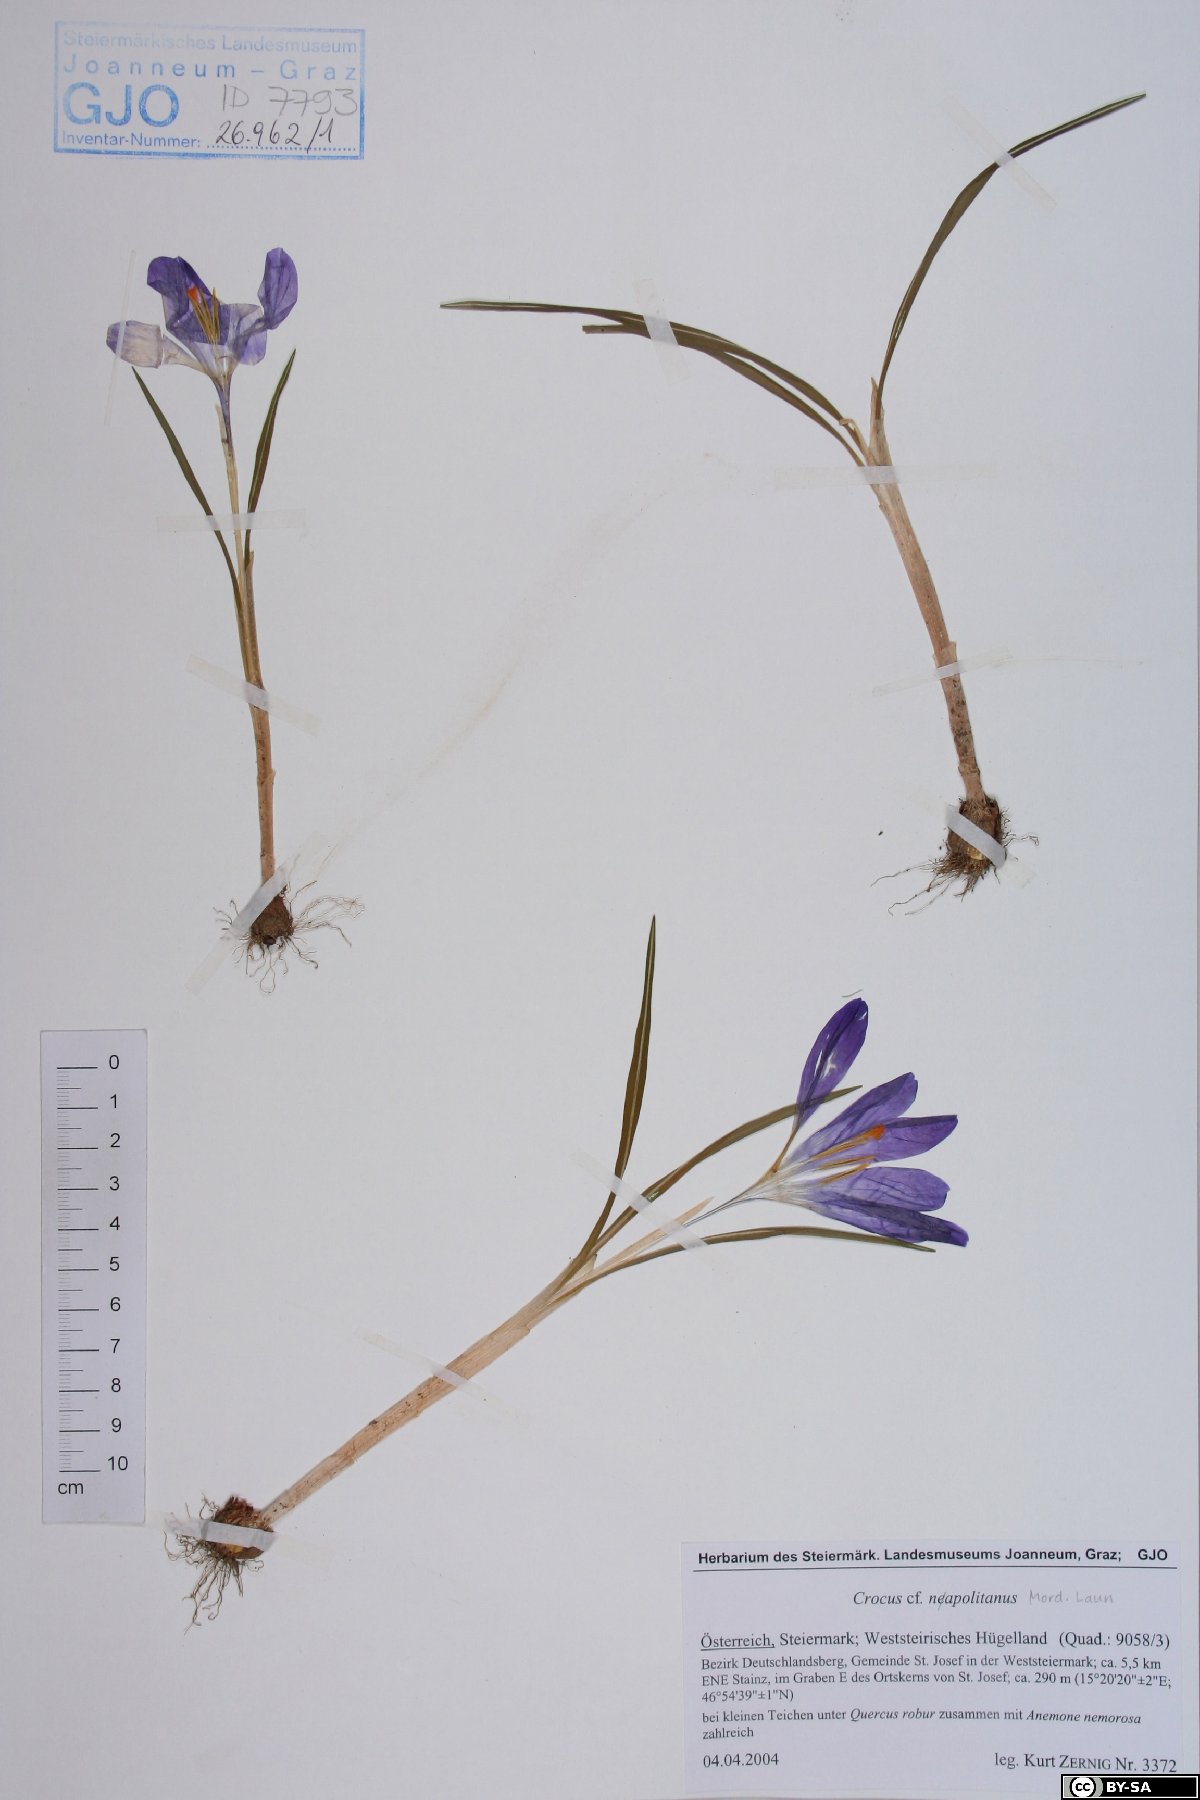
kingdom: Plantae
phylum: Tracheophyta
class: Liliopsida
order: Asparagales
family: Iridaceae
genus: Crocus
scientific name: Crocus vernus
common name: Spring crocus
